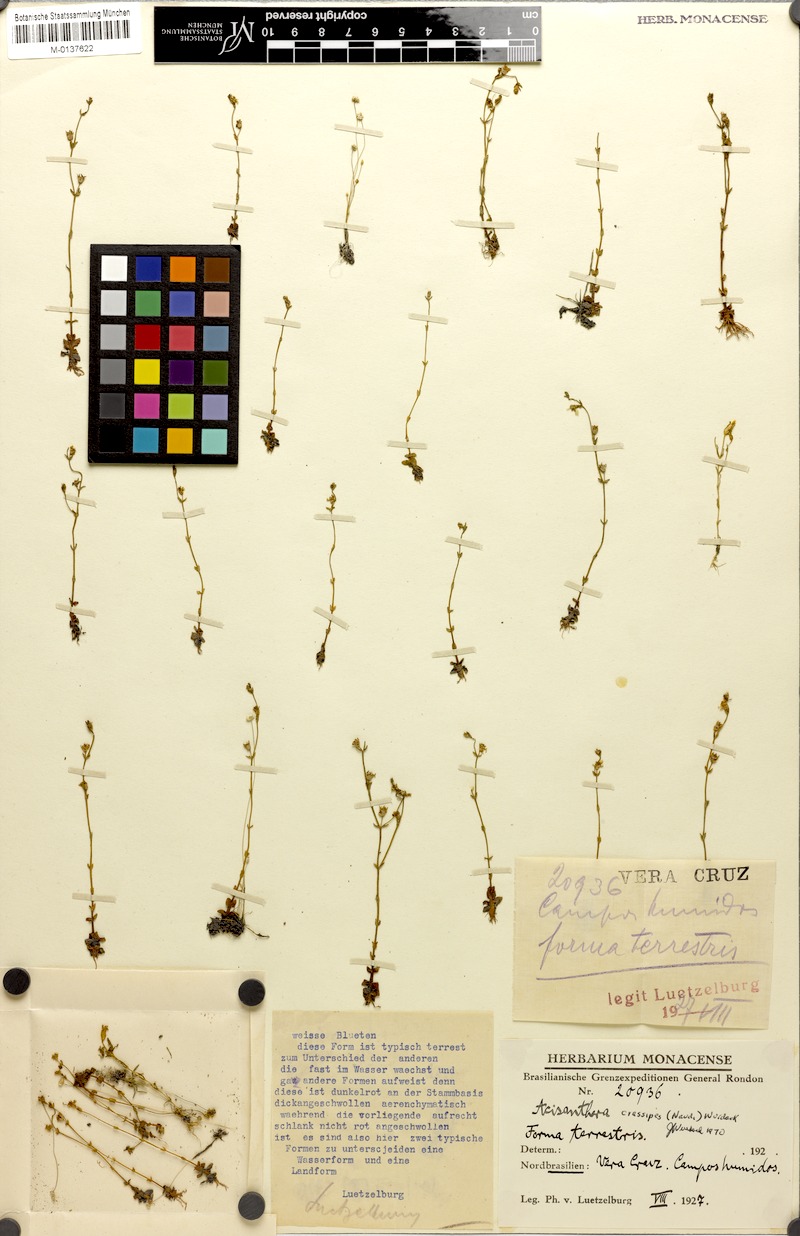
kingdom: Plantae
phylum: Tracheophyta
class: Magnoliopsida
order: Myrtales
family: Melastomataceae
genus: Noterophila
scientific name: Noterophila crassipes
